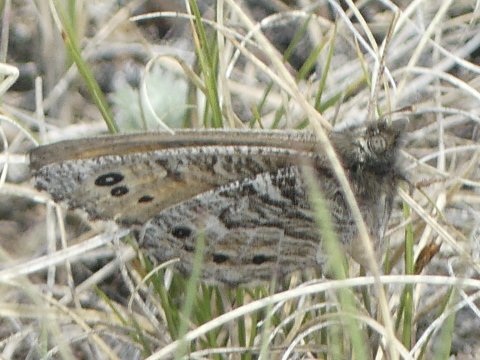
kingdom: Animalia
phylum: Arthropoda
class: Insecta
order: Lepidoptera
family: Nymphalidae
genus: Oeneis
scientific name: Oeneis uhleri
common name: Uhler's Arctic
